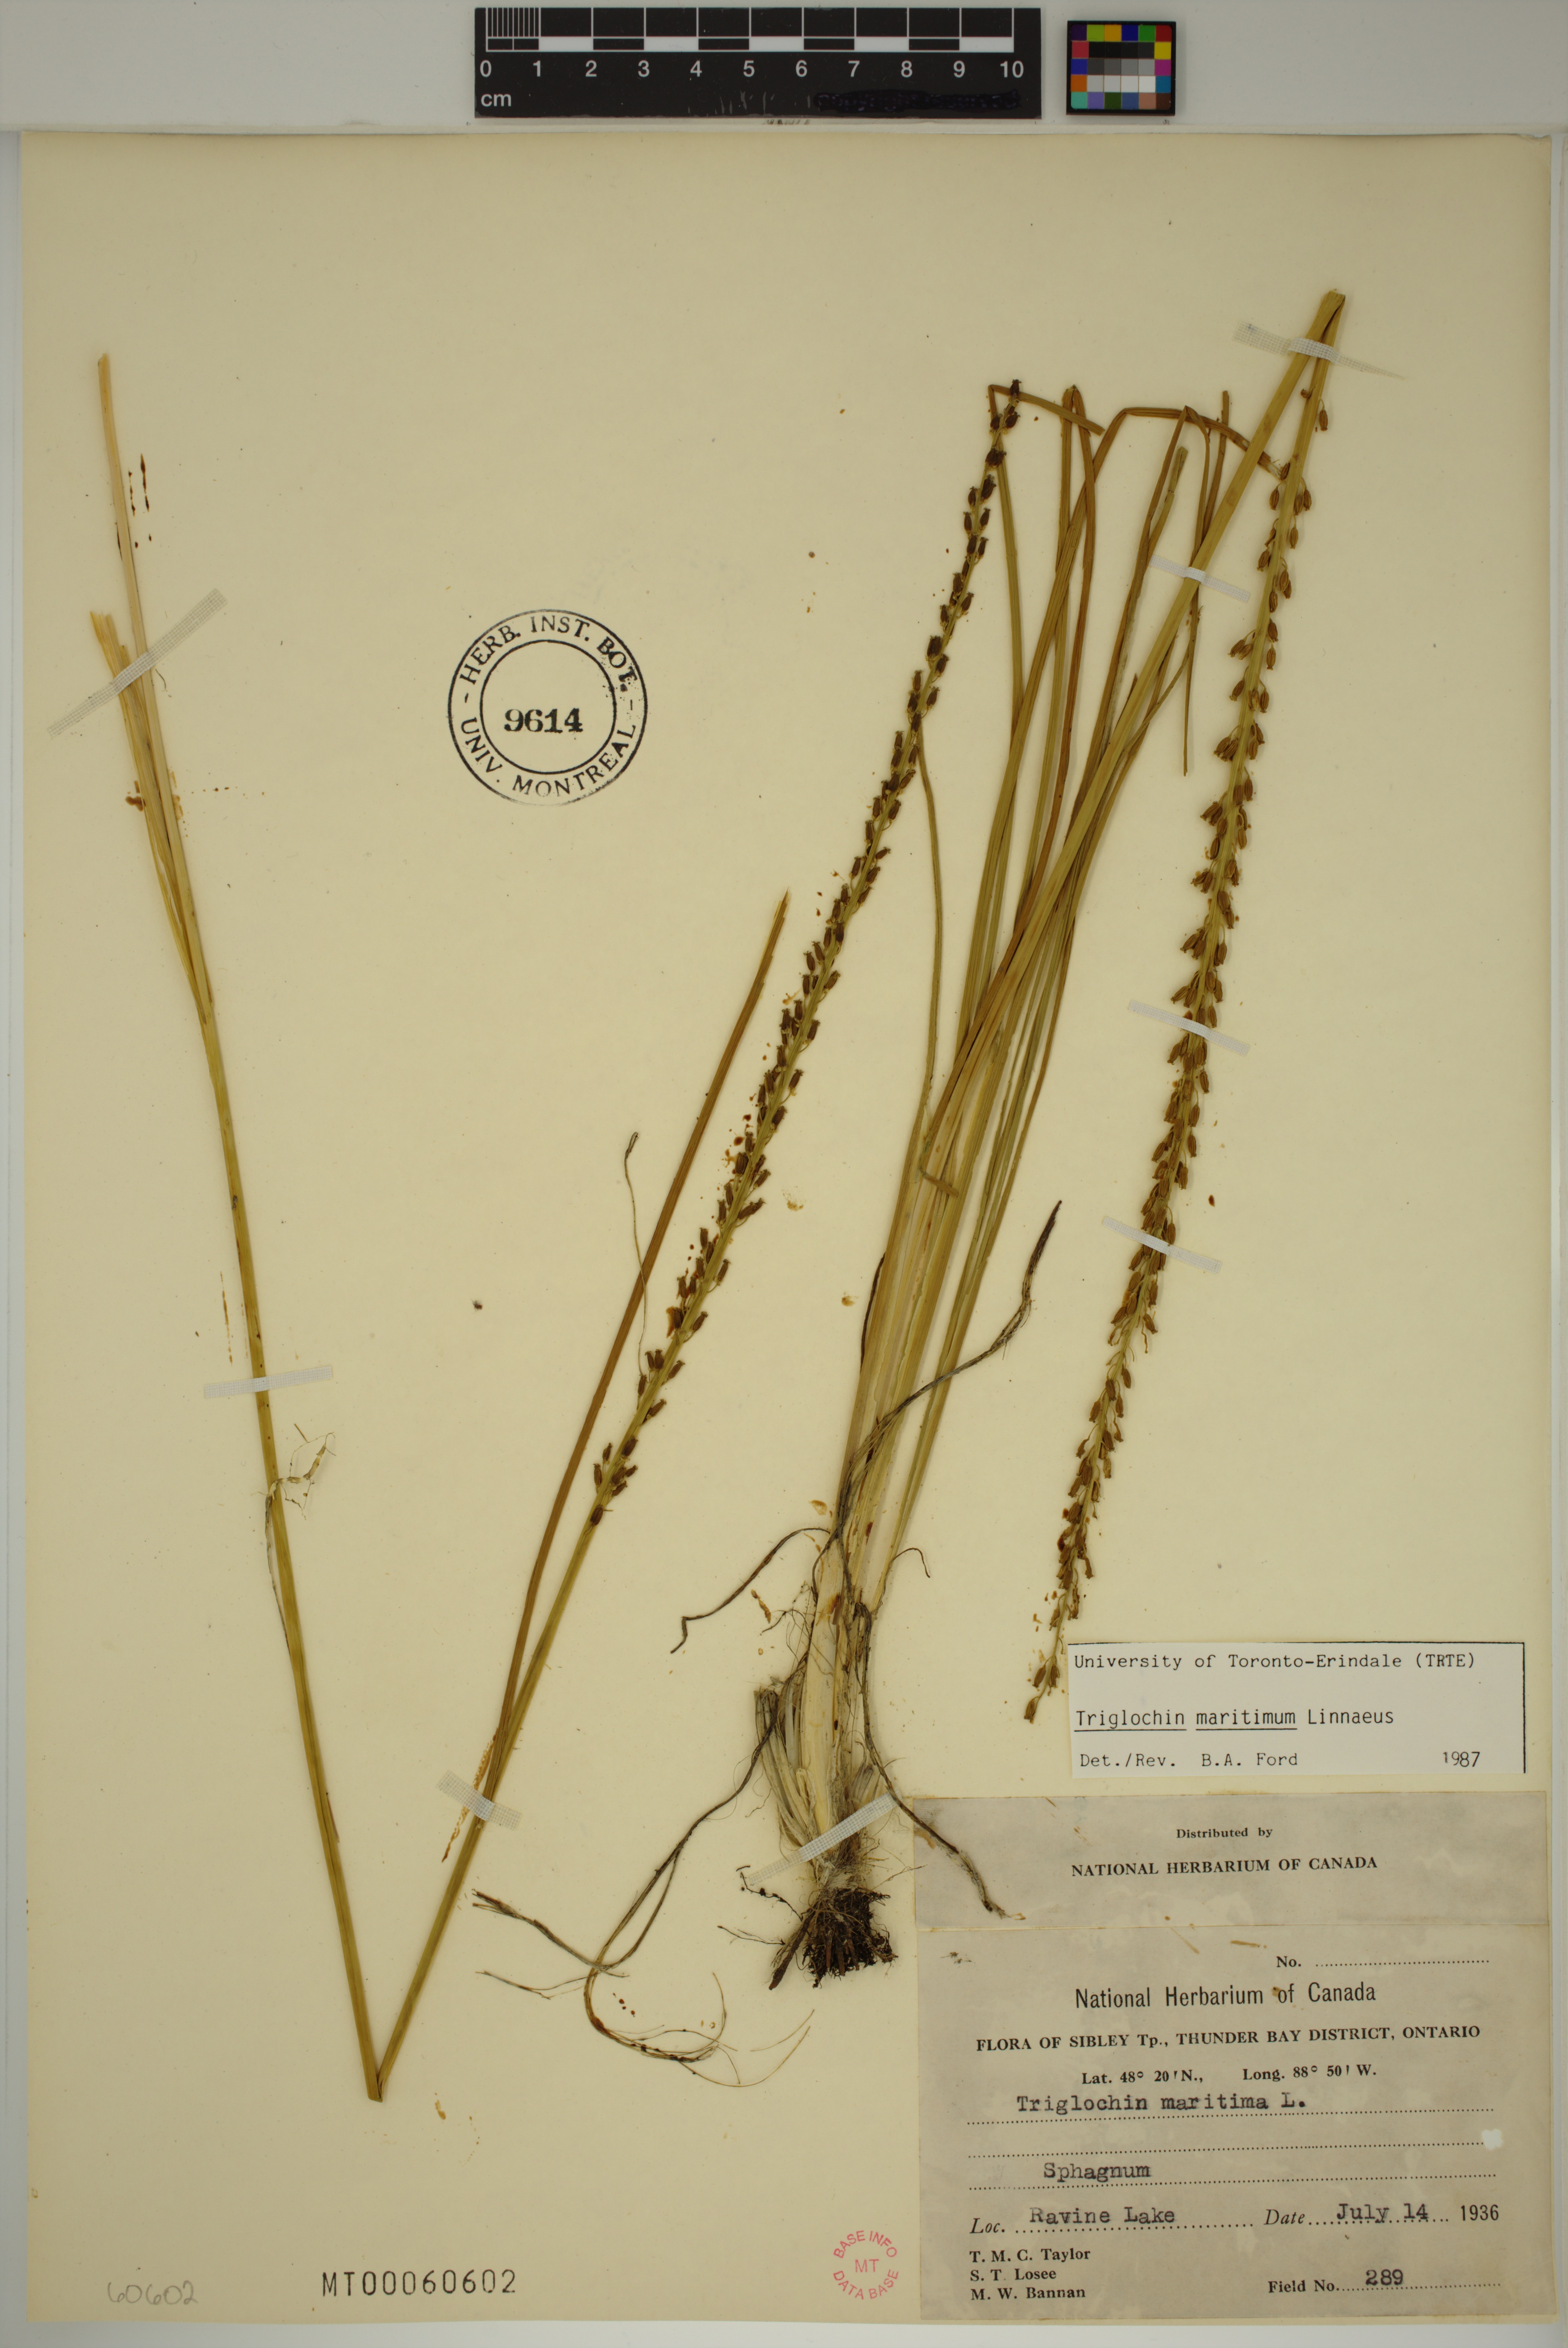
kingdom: Plantae
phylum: Tracheophyta
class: Liliopsida
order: Alismatales
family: Juncaginaceae
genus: Triglochin
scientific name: Triglochin maritima
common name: Sea arrowgrass
